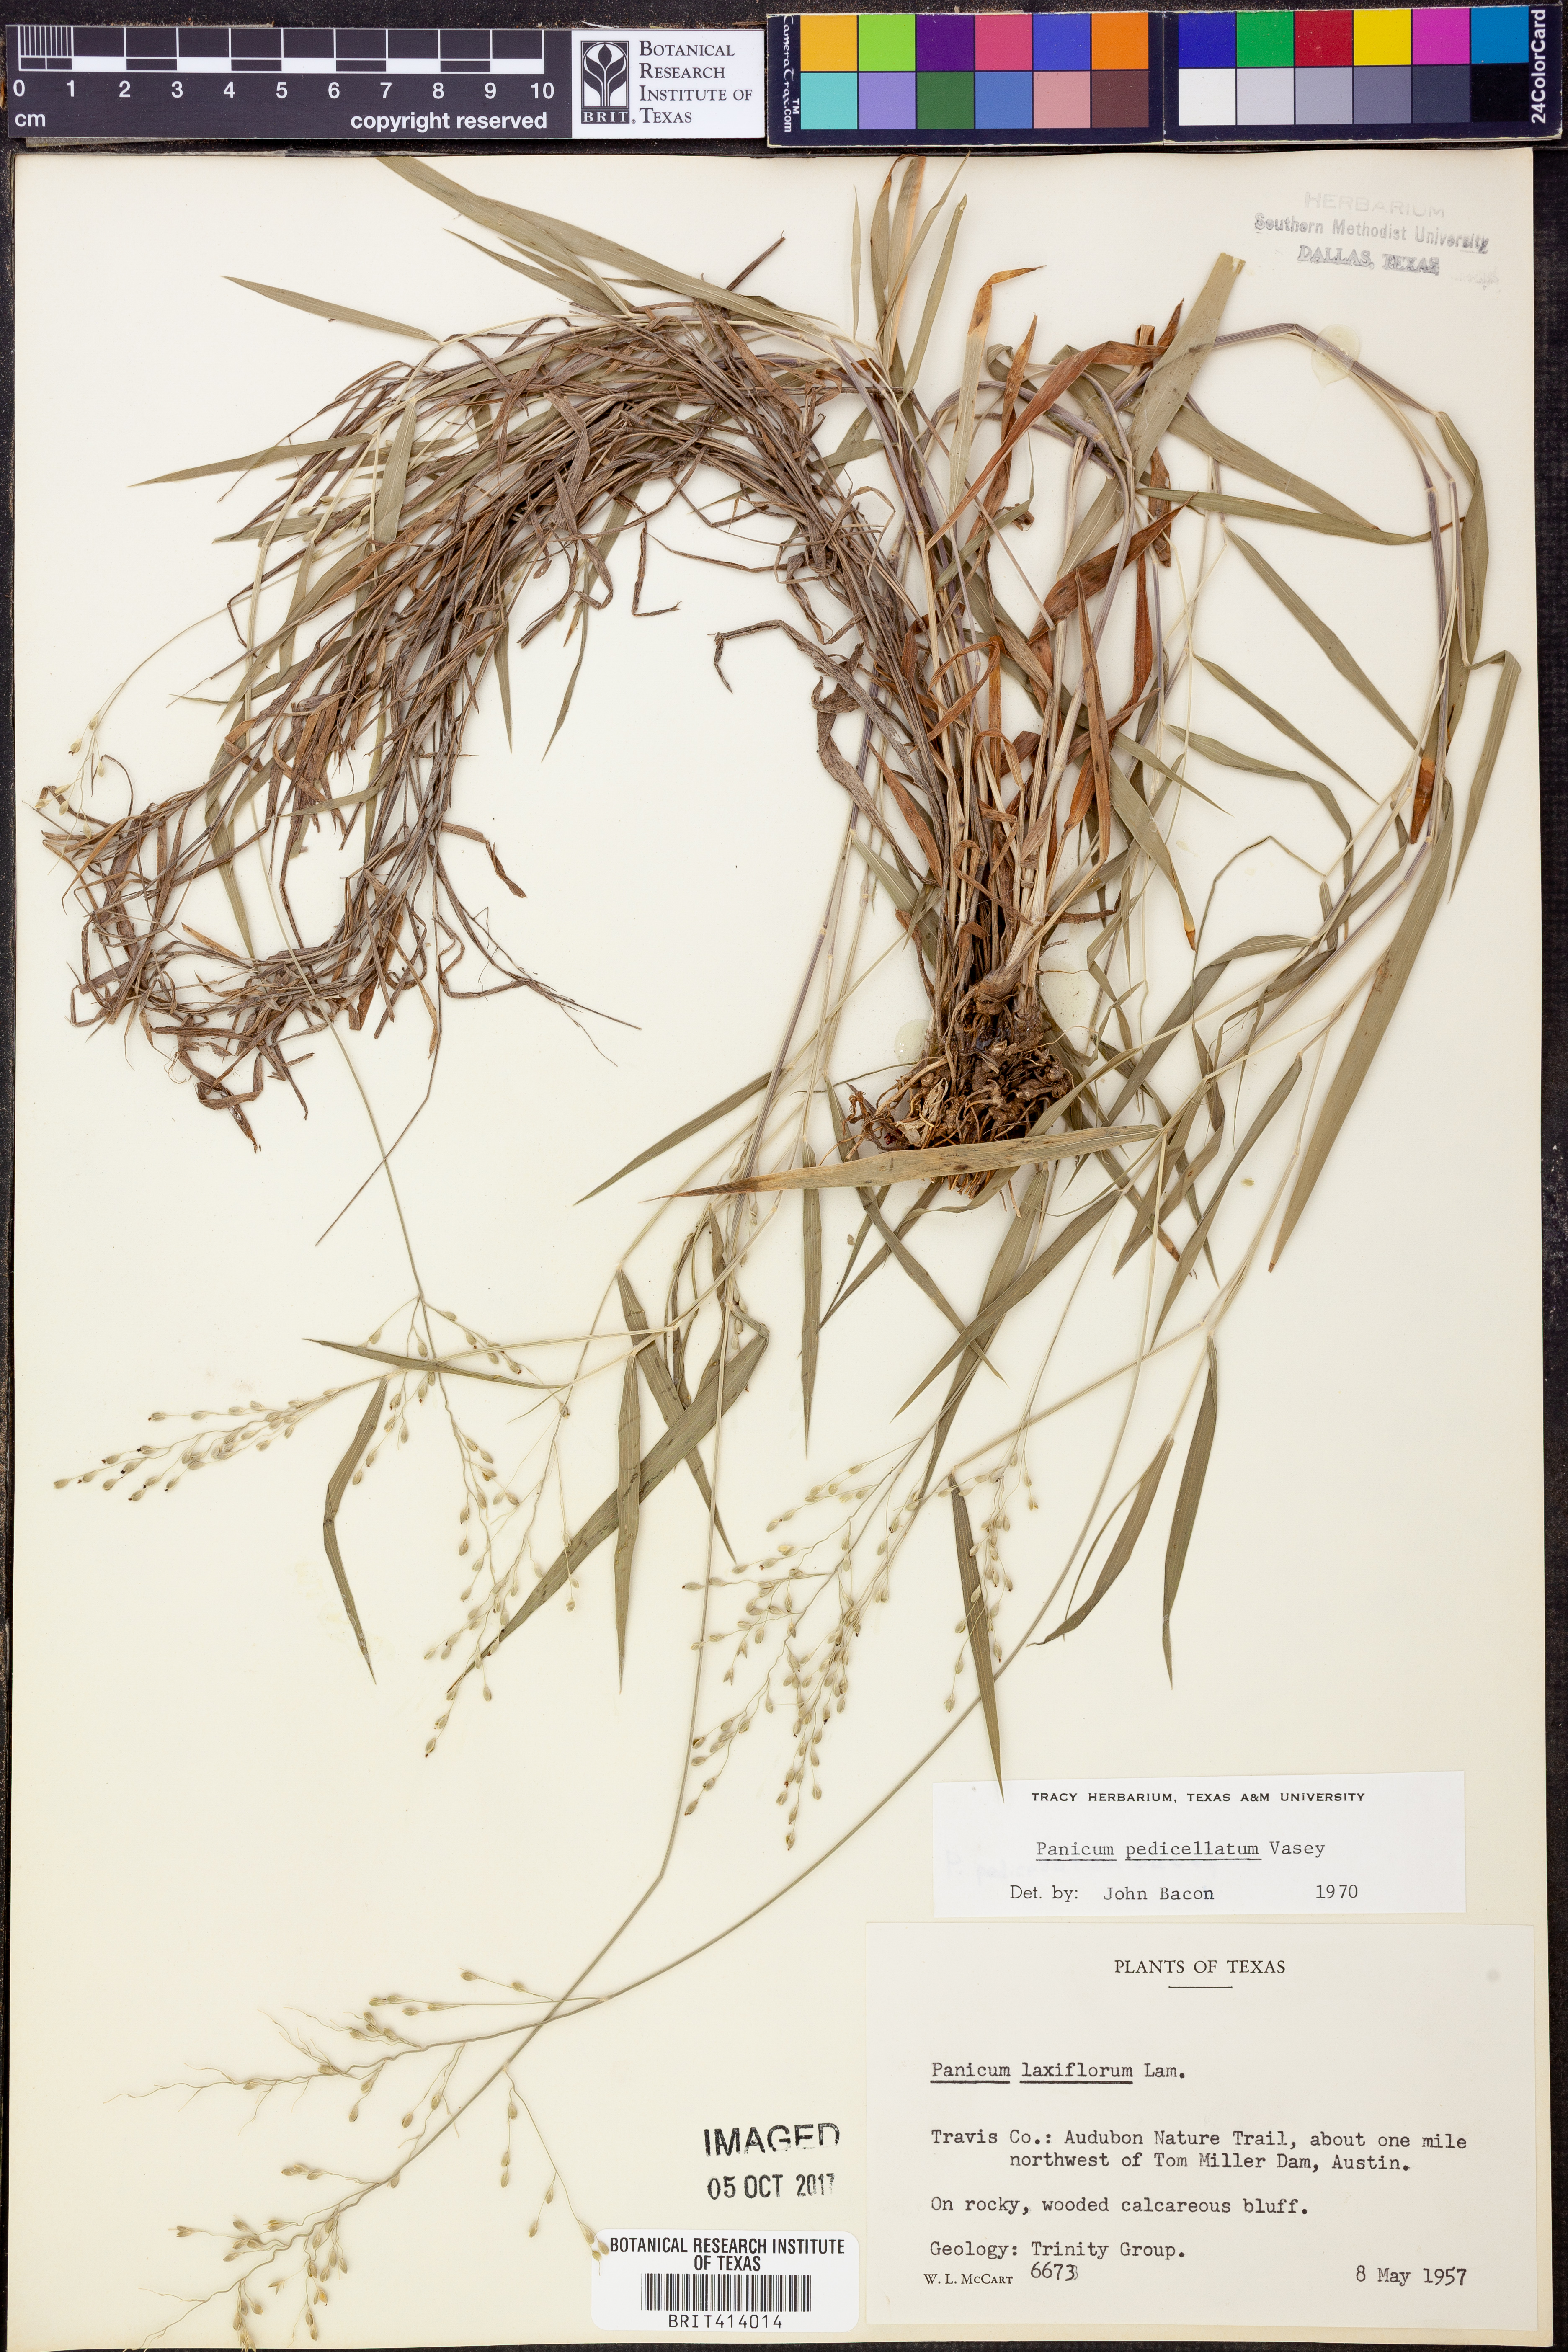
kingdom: Plantae
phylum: Tracheophyta
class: Liliopsida
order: Poales
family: Poaceae
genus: Dichanthelium
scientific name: Dichanthelium transiens
